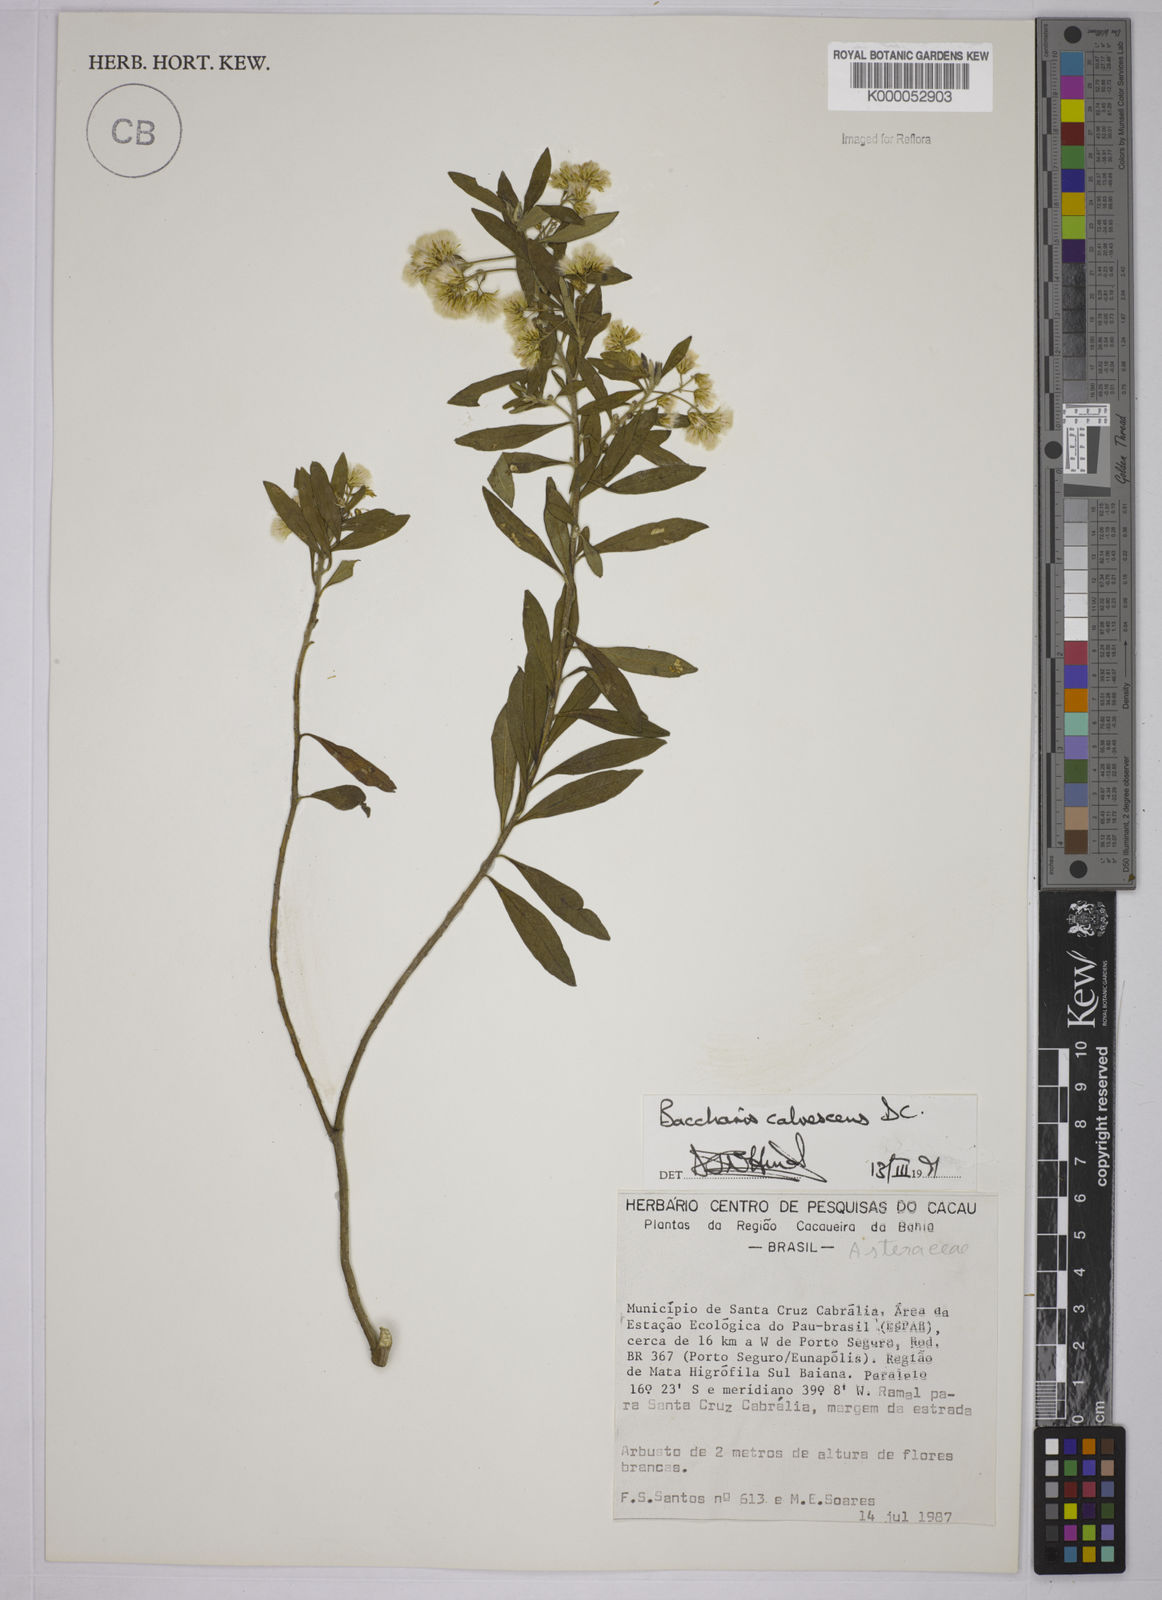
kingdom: Plantae
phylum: Tracheophyta
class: Magnoliopsida
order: Asterales
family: Asteraceae
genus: Baccharis
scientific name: Baccharis calvescens
